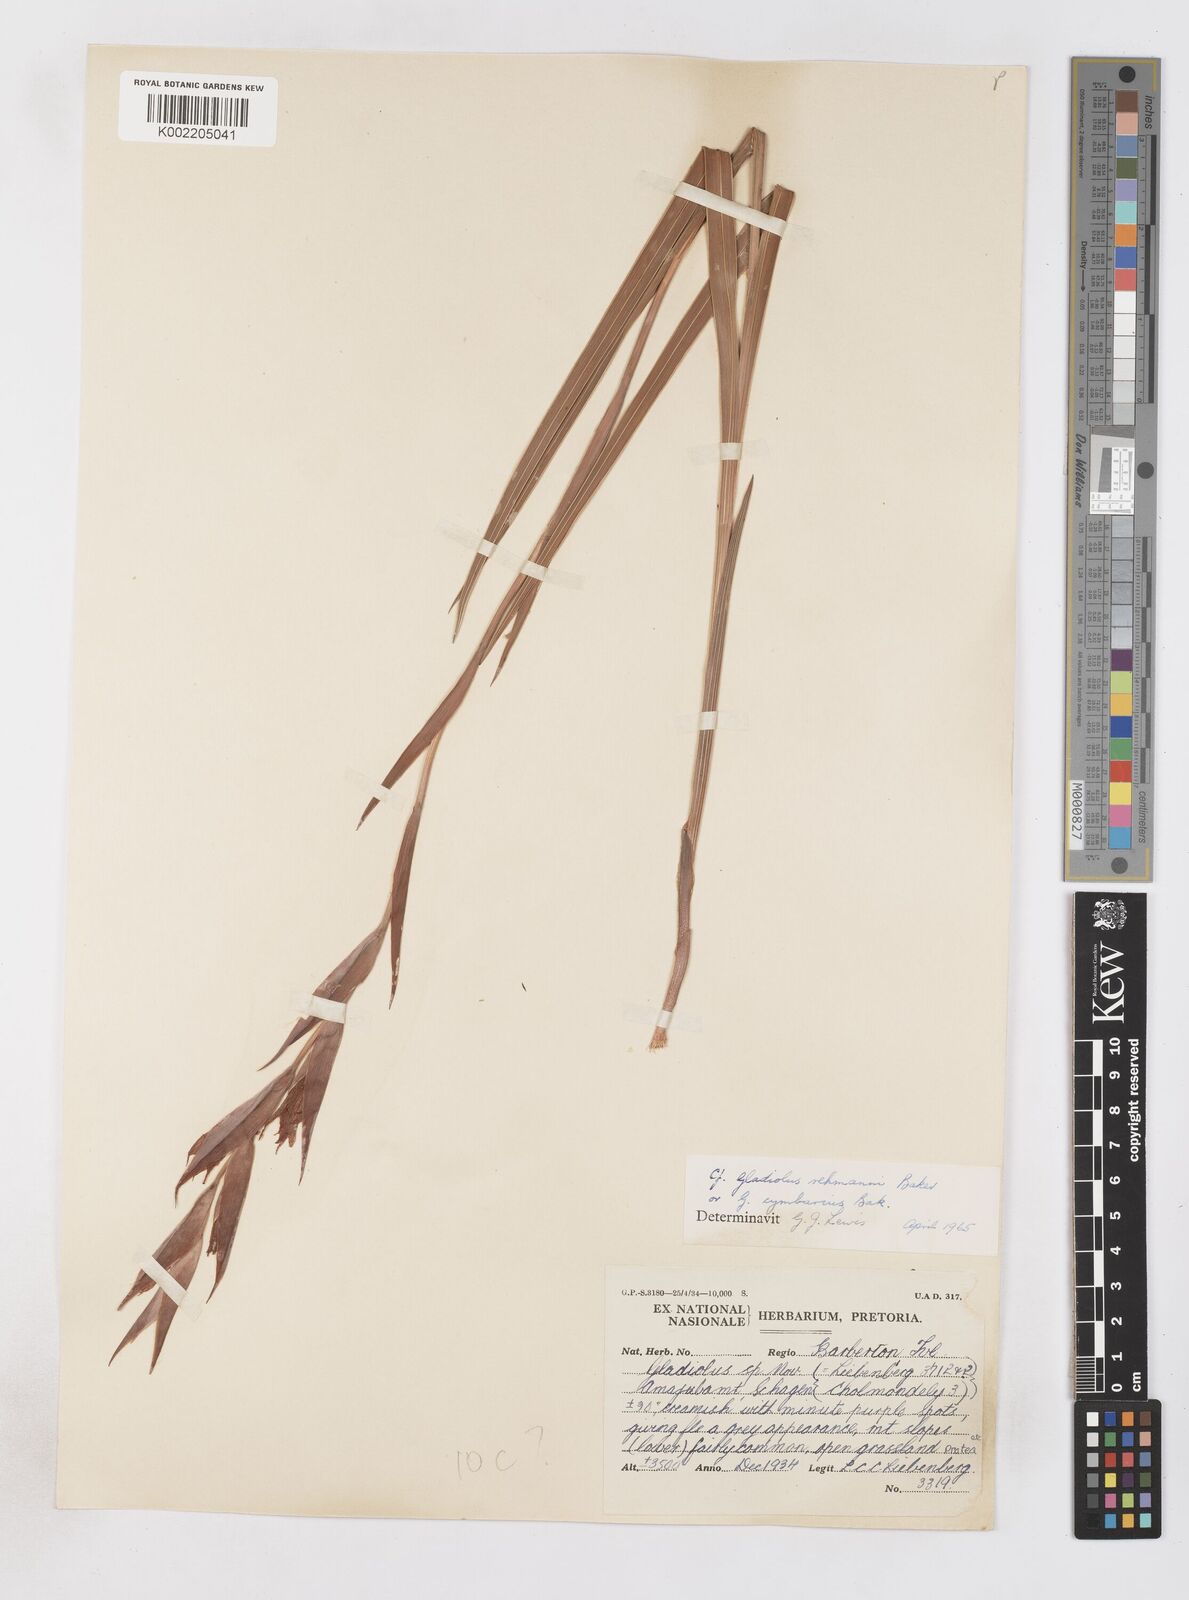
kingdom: Plantae
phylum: Tracheophyta
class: Liliopsida
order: Asparagales
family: Iridaceae
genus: Gladiolus
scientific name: Gladiolus ecklonii
